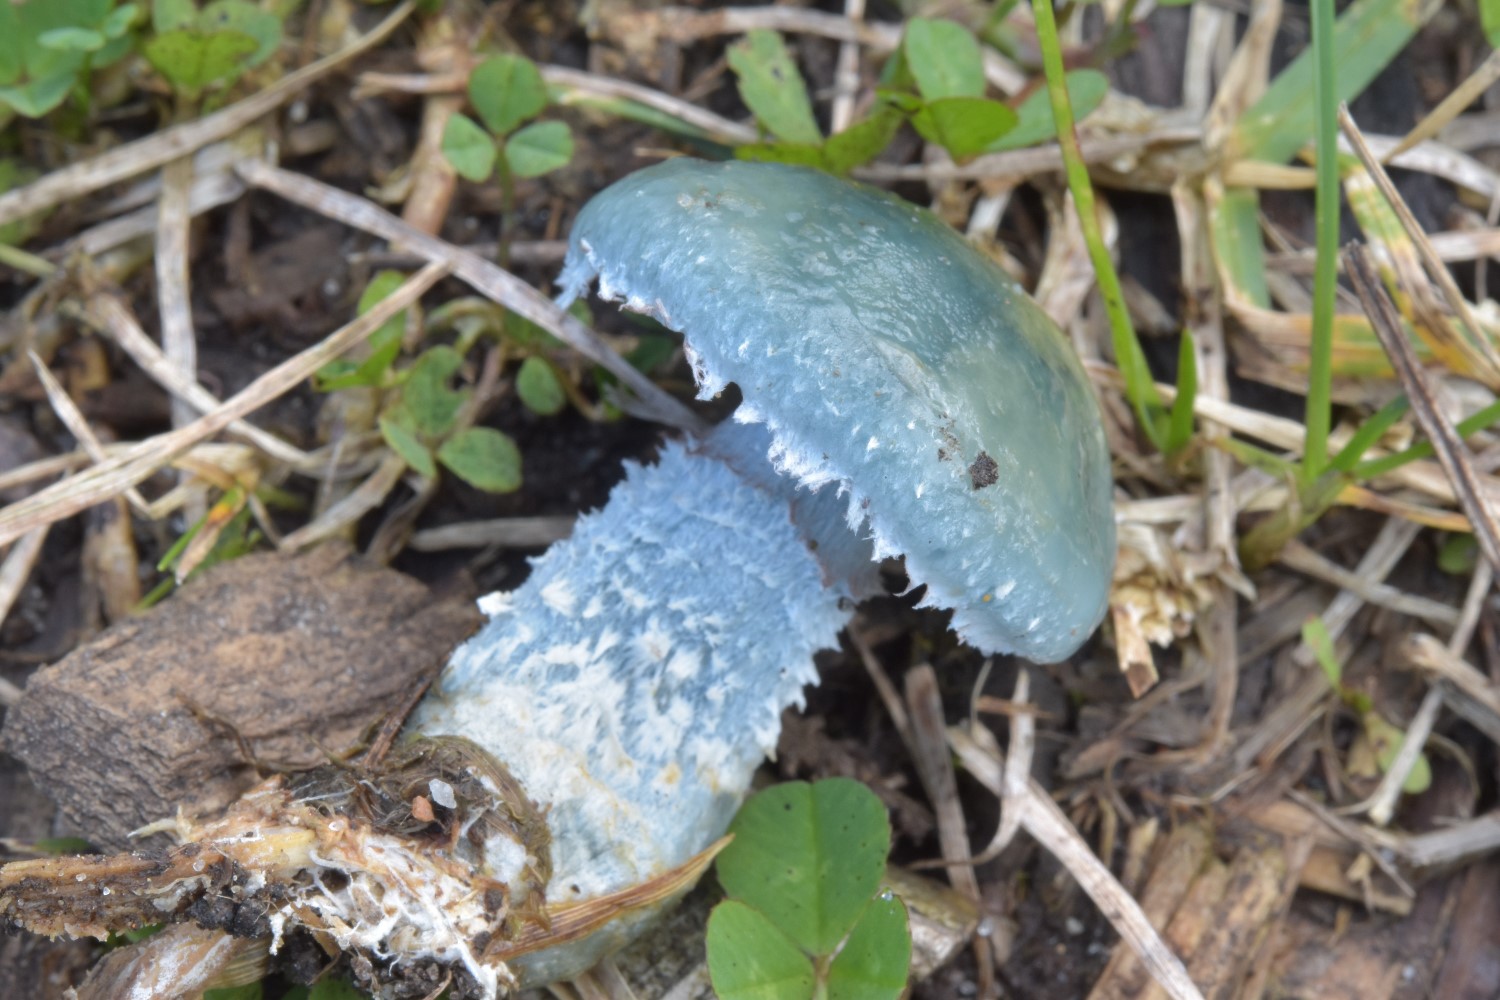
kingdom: Fungi
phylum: Basidiomycota
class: Agaricomycetes
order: Agaricales
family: Strophariaceae
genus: Stropharia
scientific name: Stropharia cyanea
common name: blågrøn bredblad
